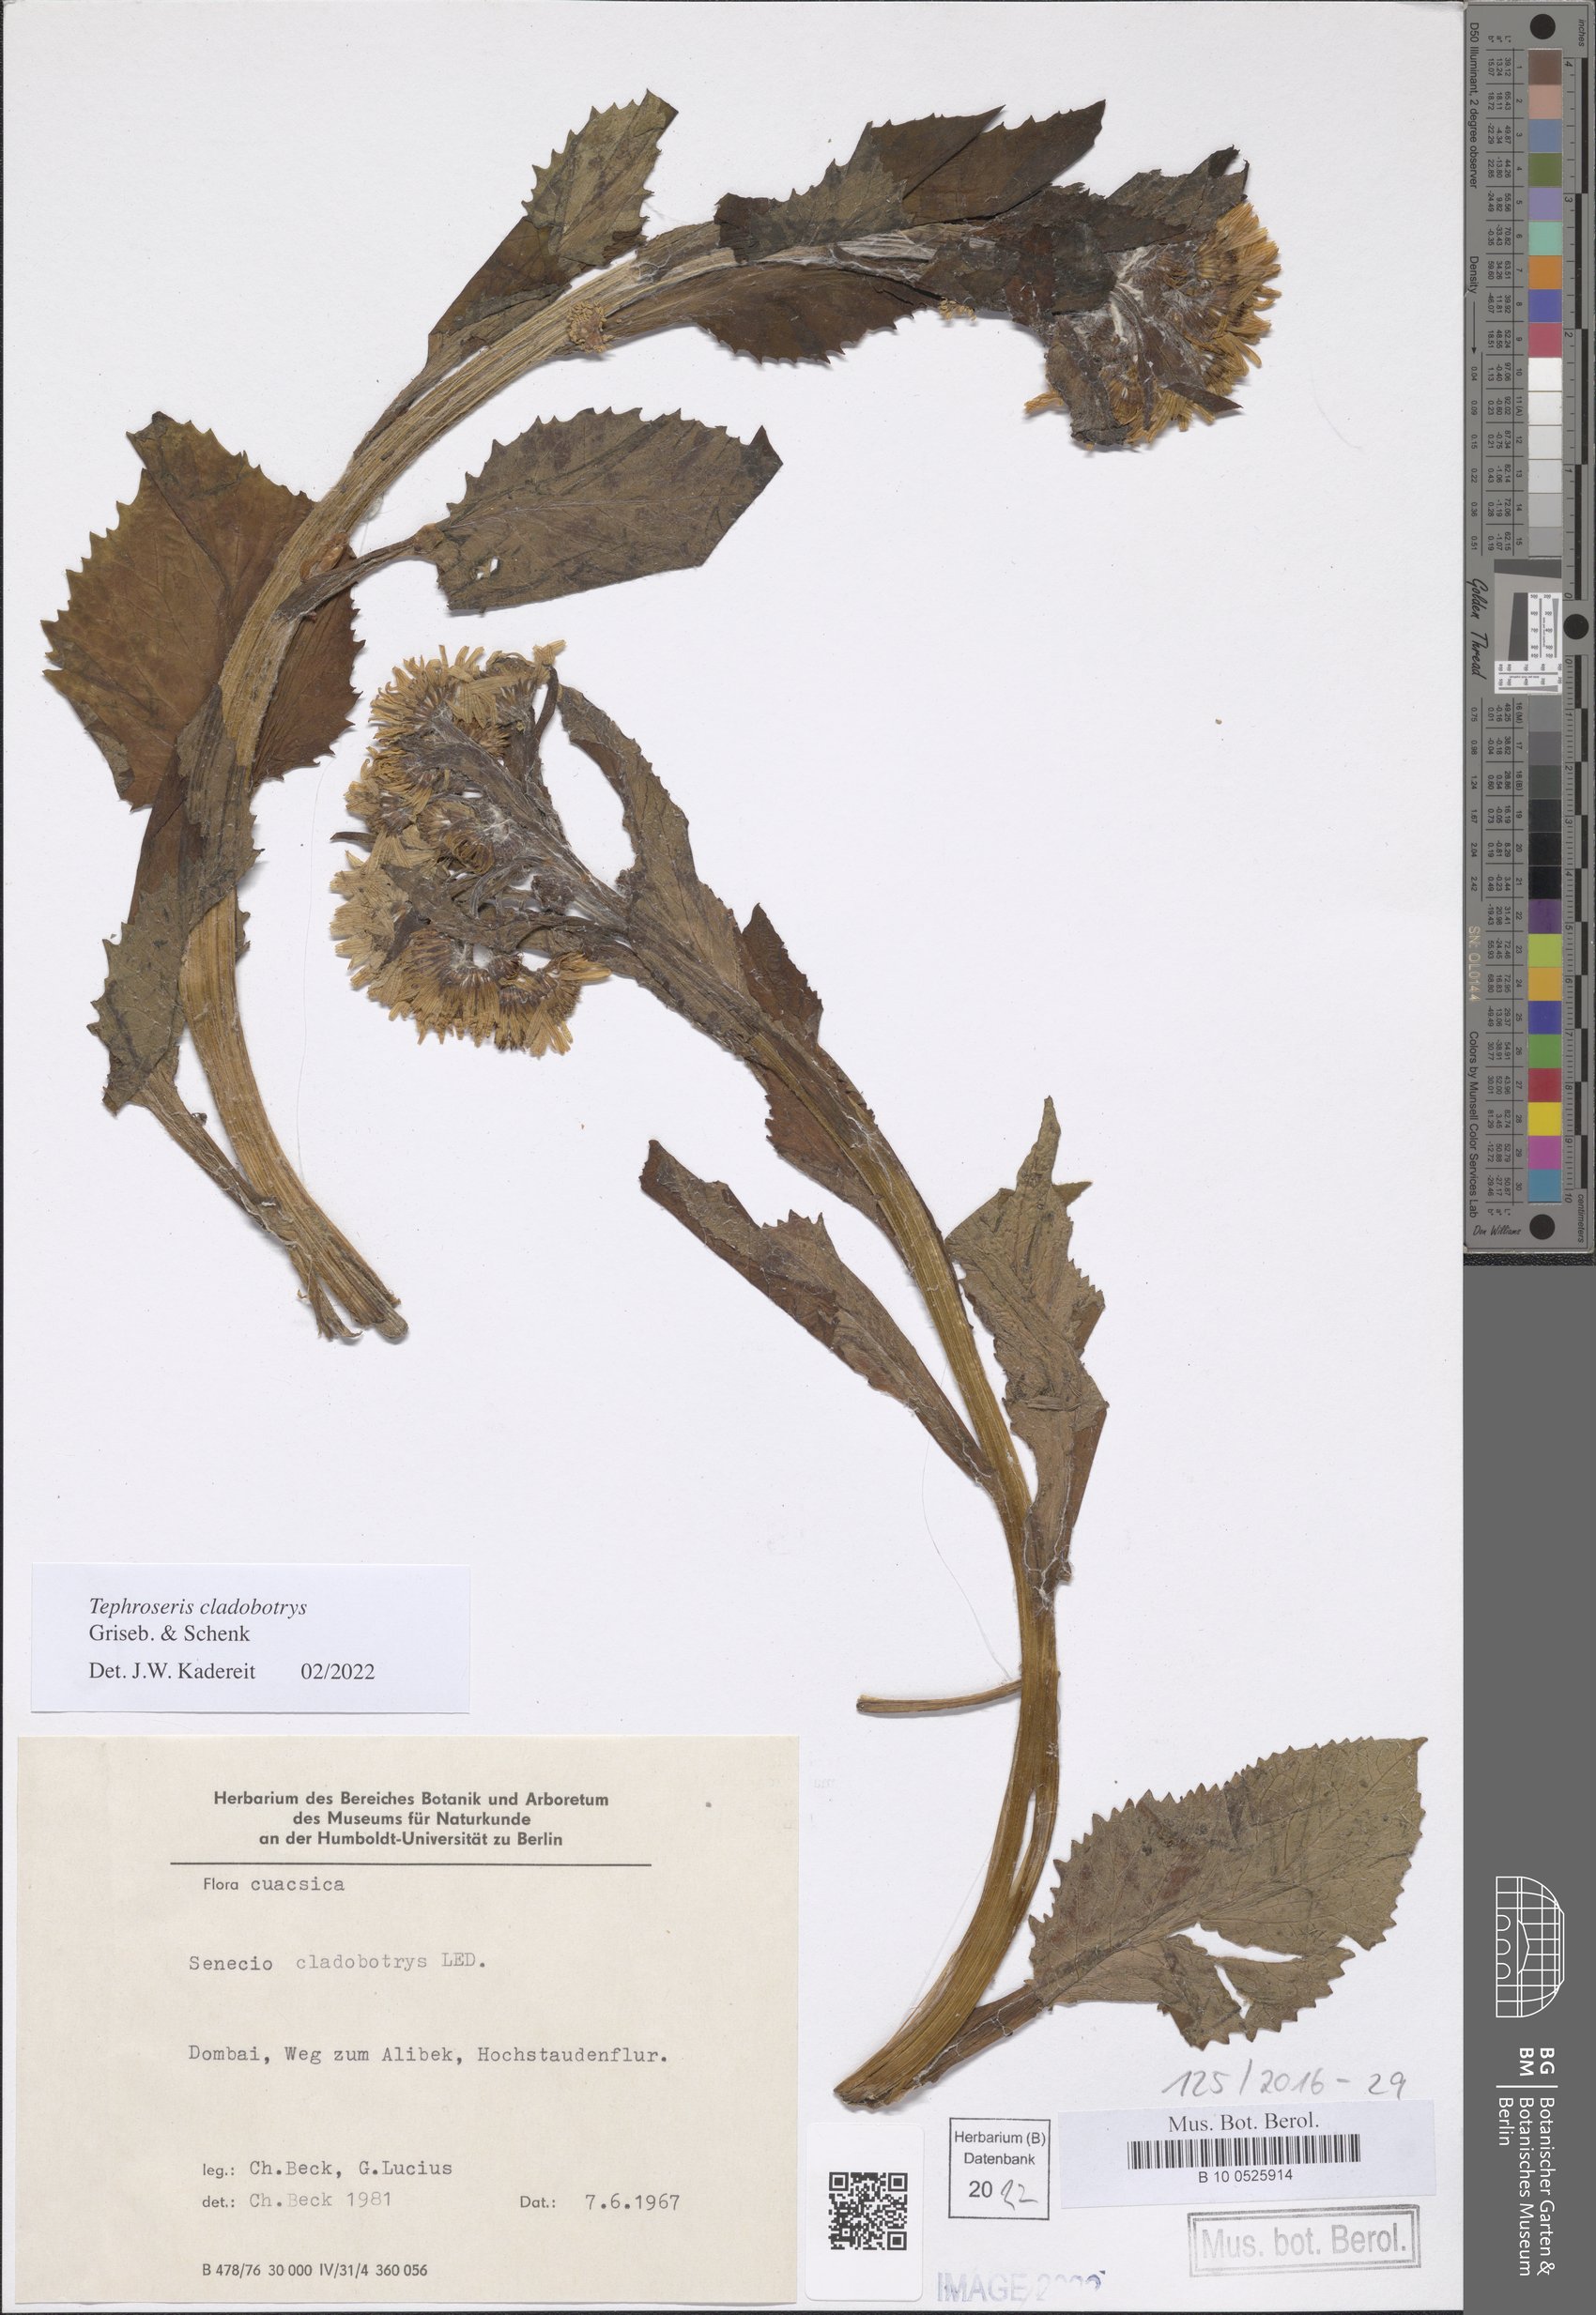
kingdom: Plantae
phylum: Tracheophyta
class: Magnoliopsida
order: Asterales
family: Asteraceae
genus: Tephroseris
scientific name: Tephroseris cladobotrys
